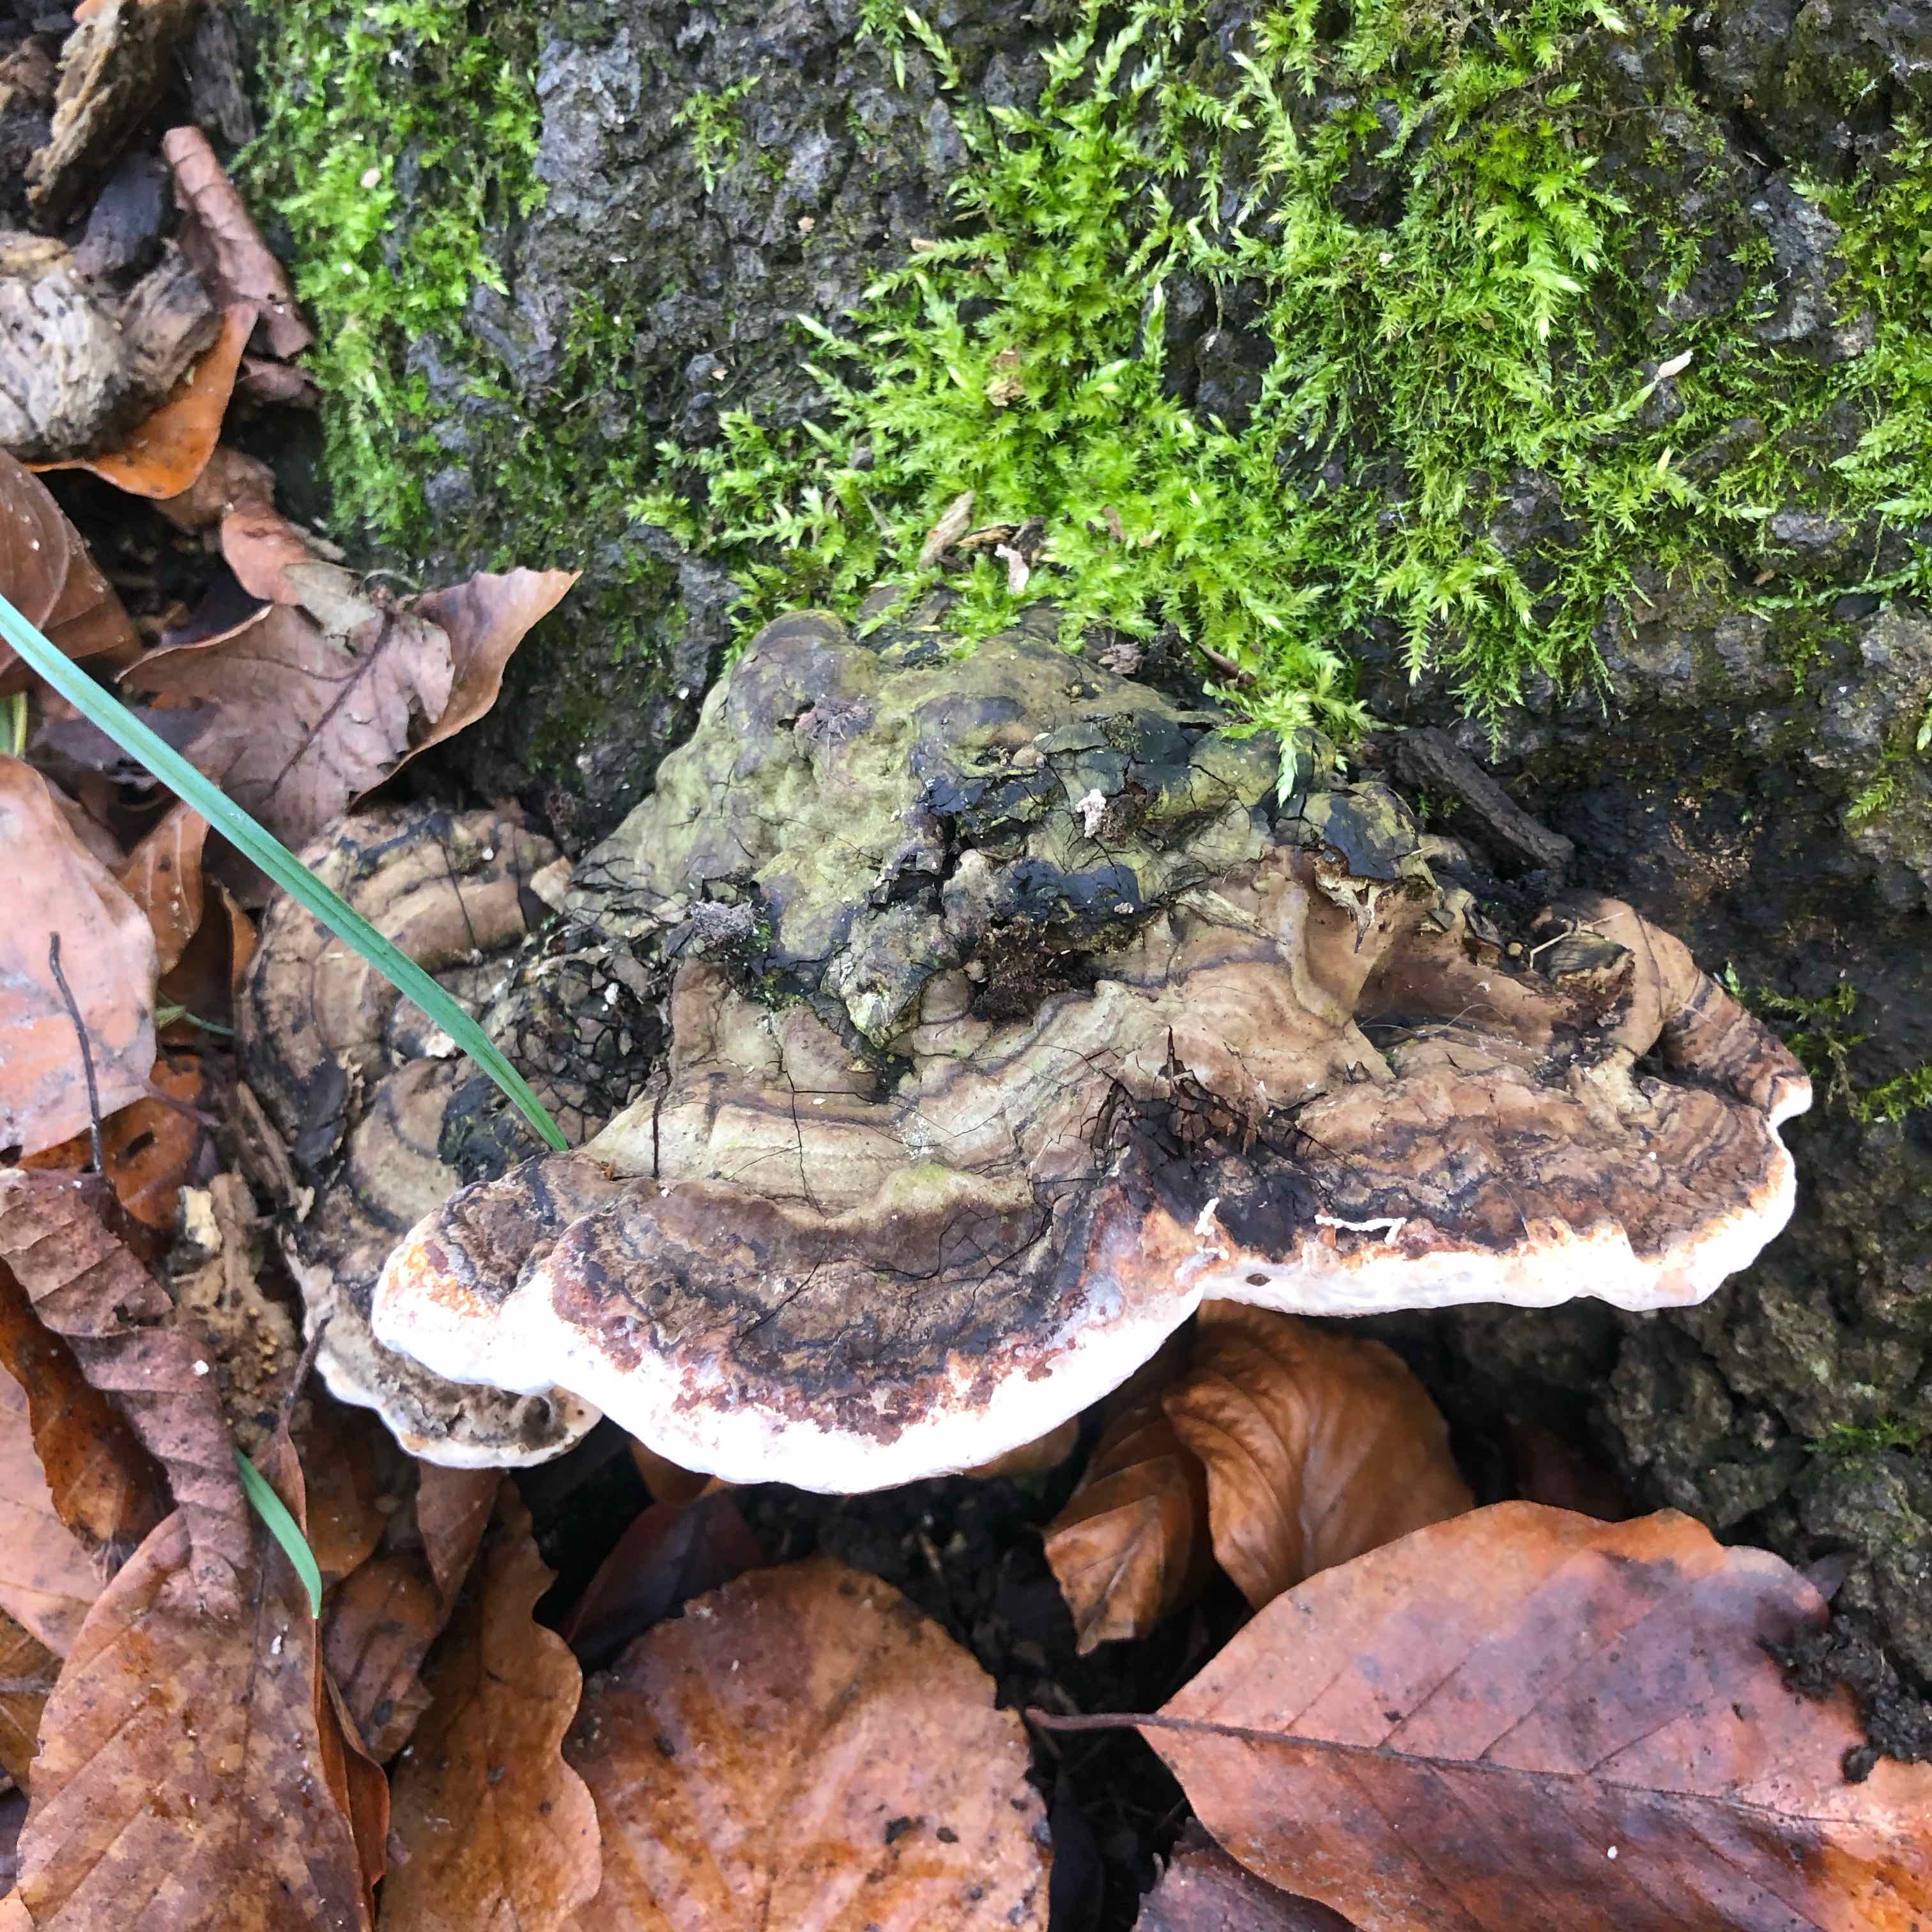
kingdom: Fungi
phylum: Basidiomycota
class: Agaricomycetes
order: Polyporales
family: Polyporaceae
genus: Ganoderma
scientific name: Ganoderma applanatum
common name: flad lakporesvamp
